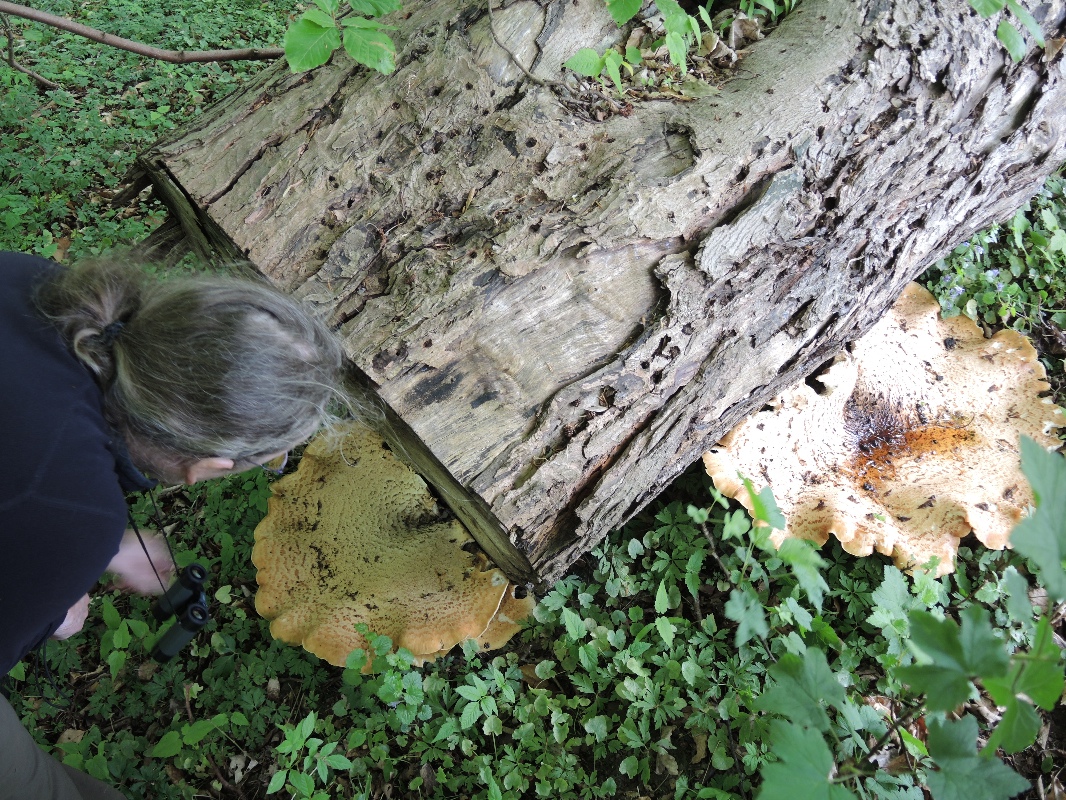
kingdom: Fungi
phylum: Basidiomycota
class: Agaricomycetes
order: Polyporales
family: Polyporaceae
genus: Cerioporus
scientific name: Cerioporus squamosus
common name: skællet stilkporesvamp
